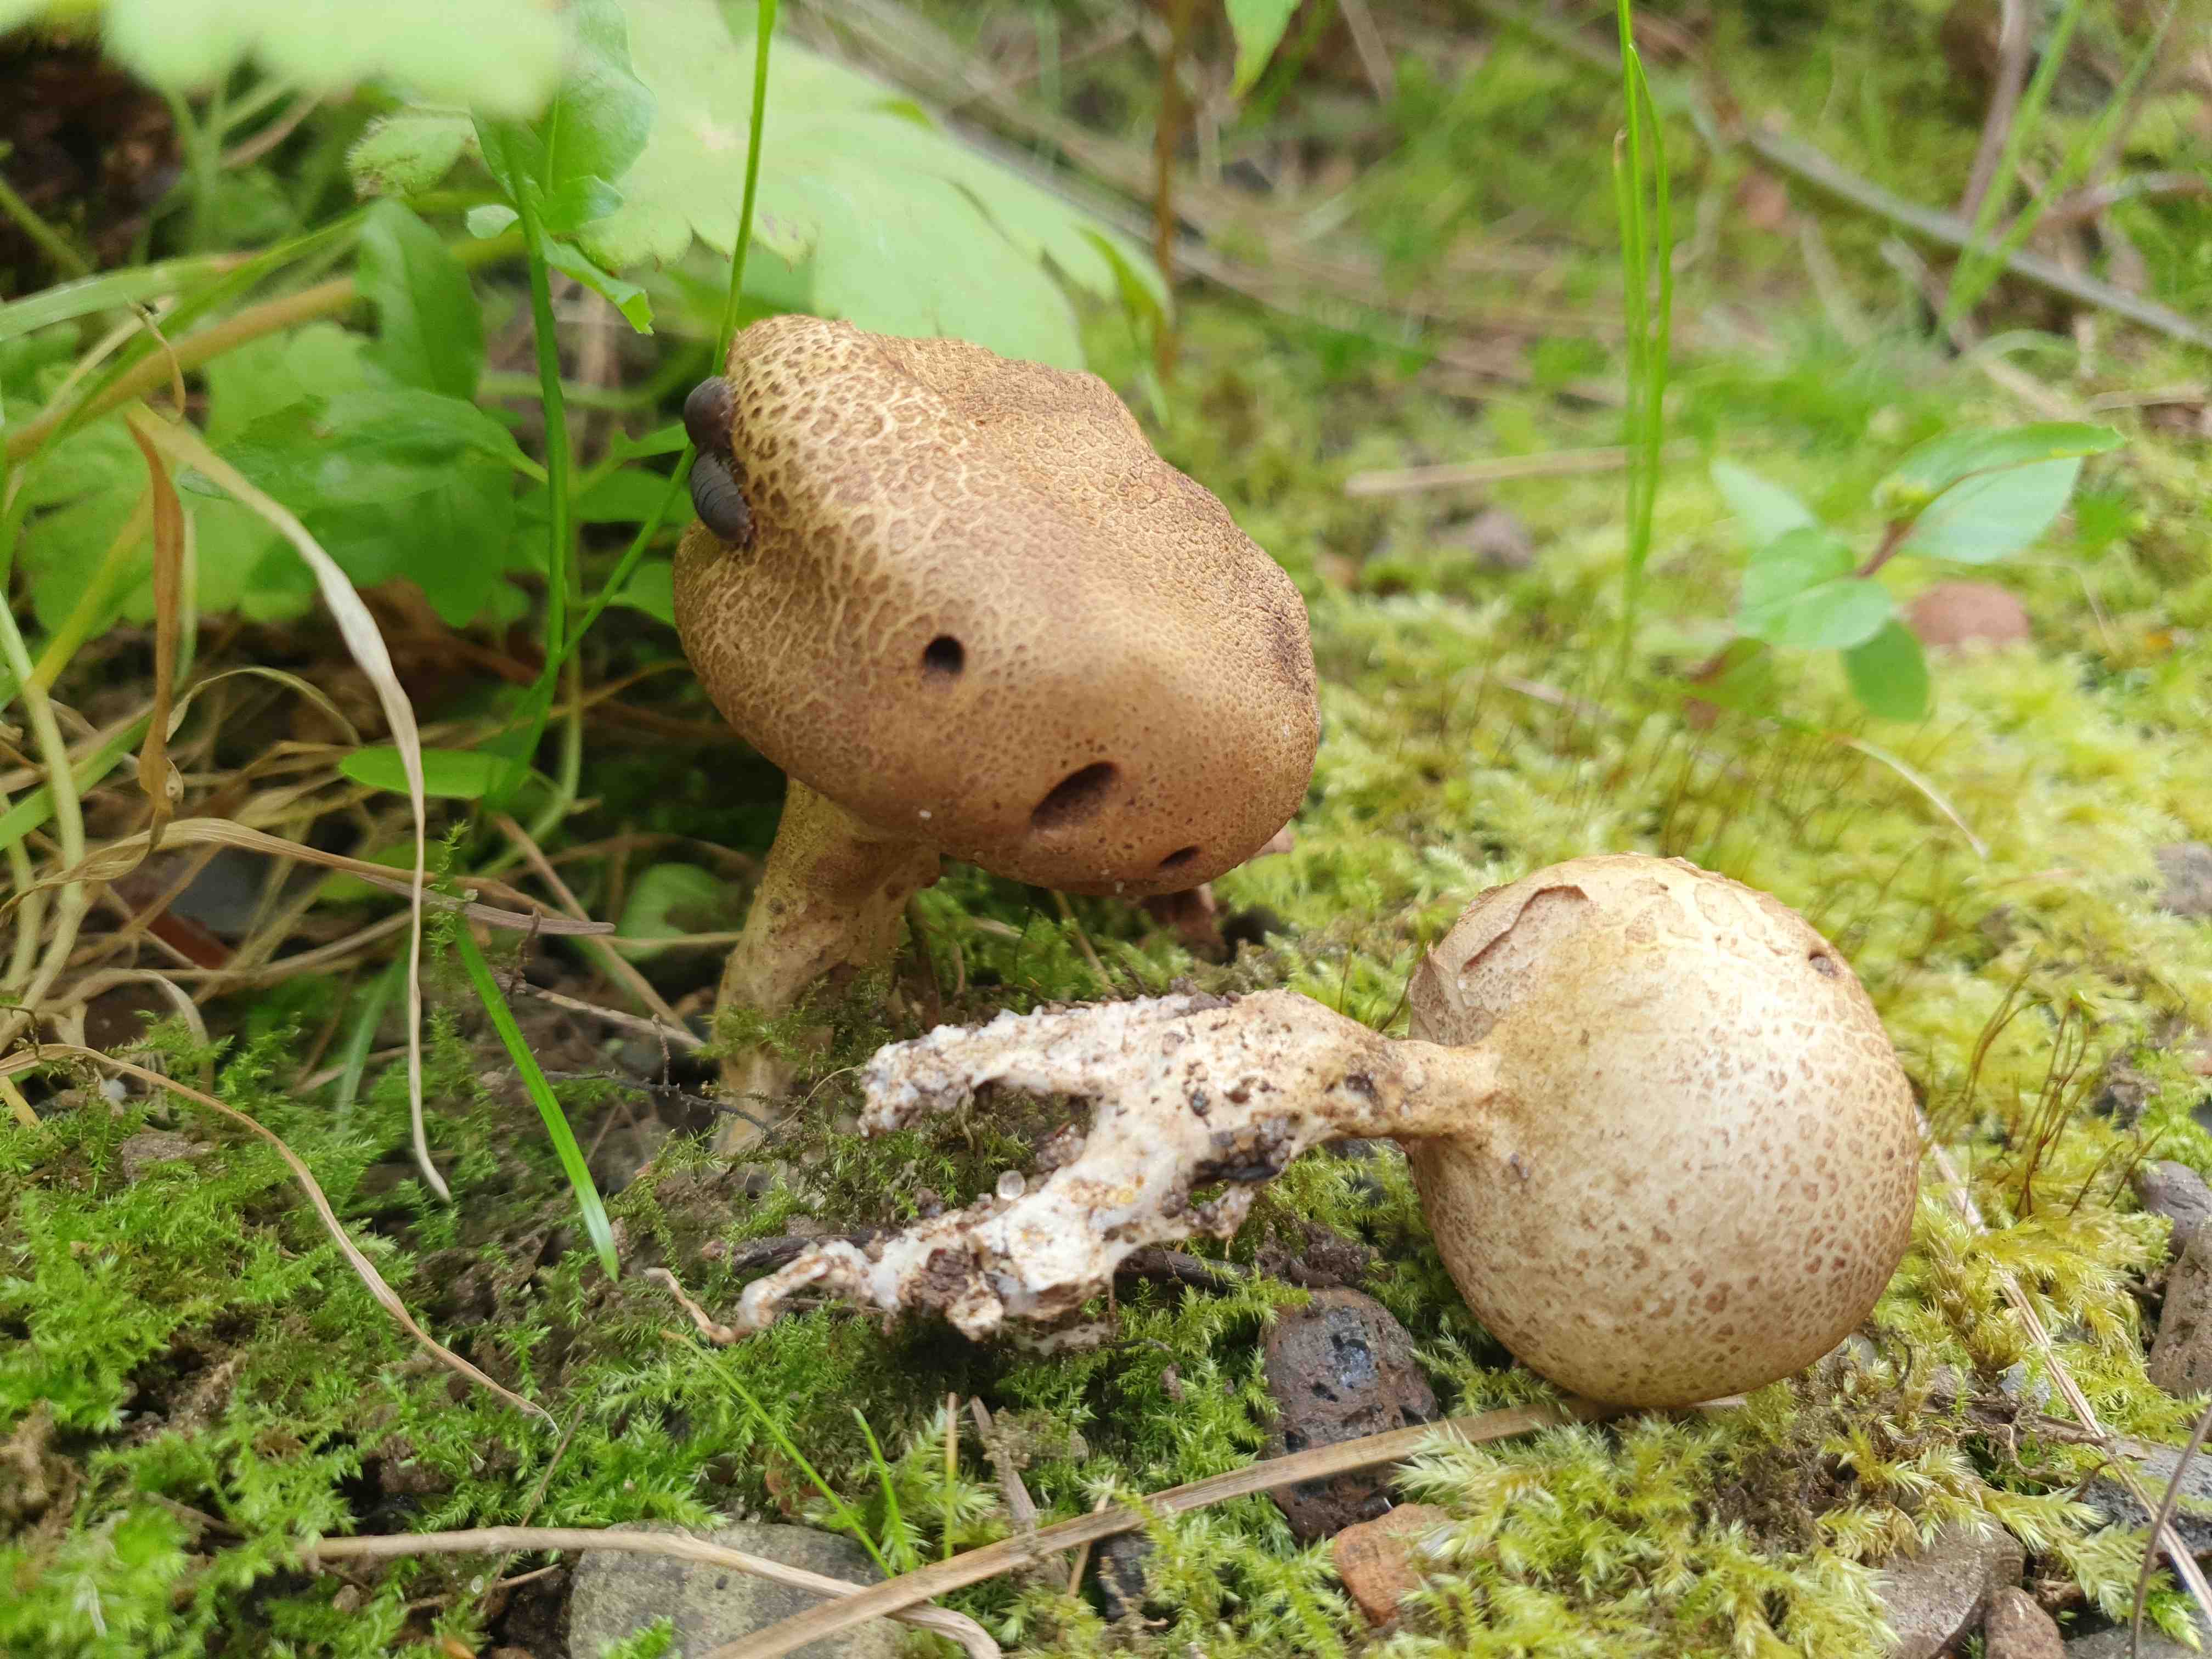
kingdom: Fungi
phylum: Basidiomycota
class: Agaricomycetes
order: Boletales
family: Sclerodermataceae
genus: Scleroderma
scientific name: Scleroderma verrucosum
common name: stilket bruskbold
